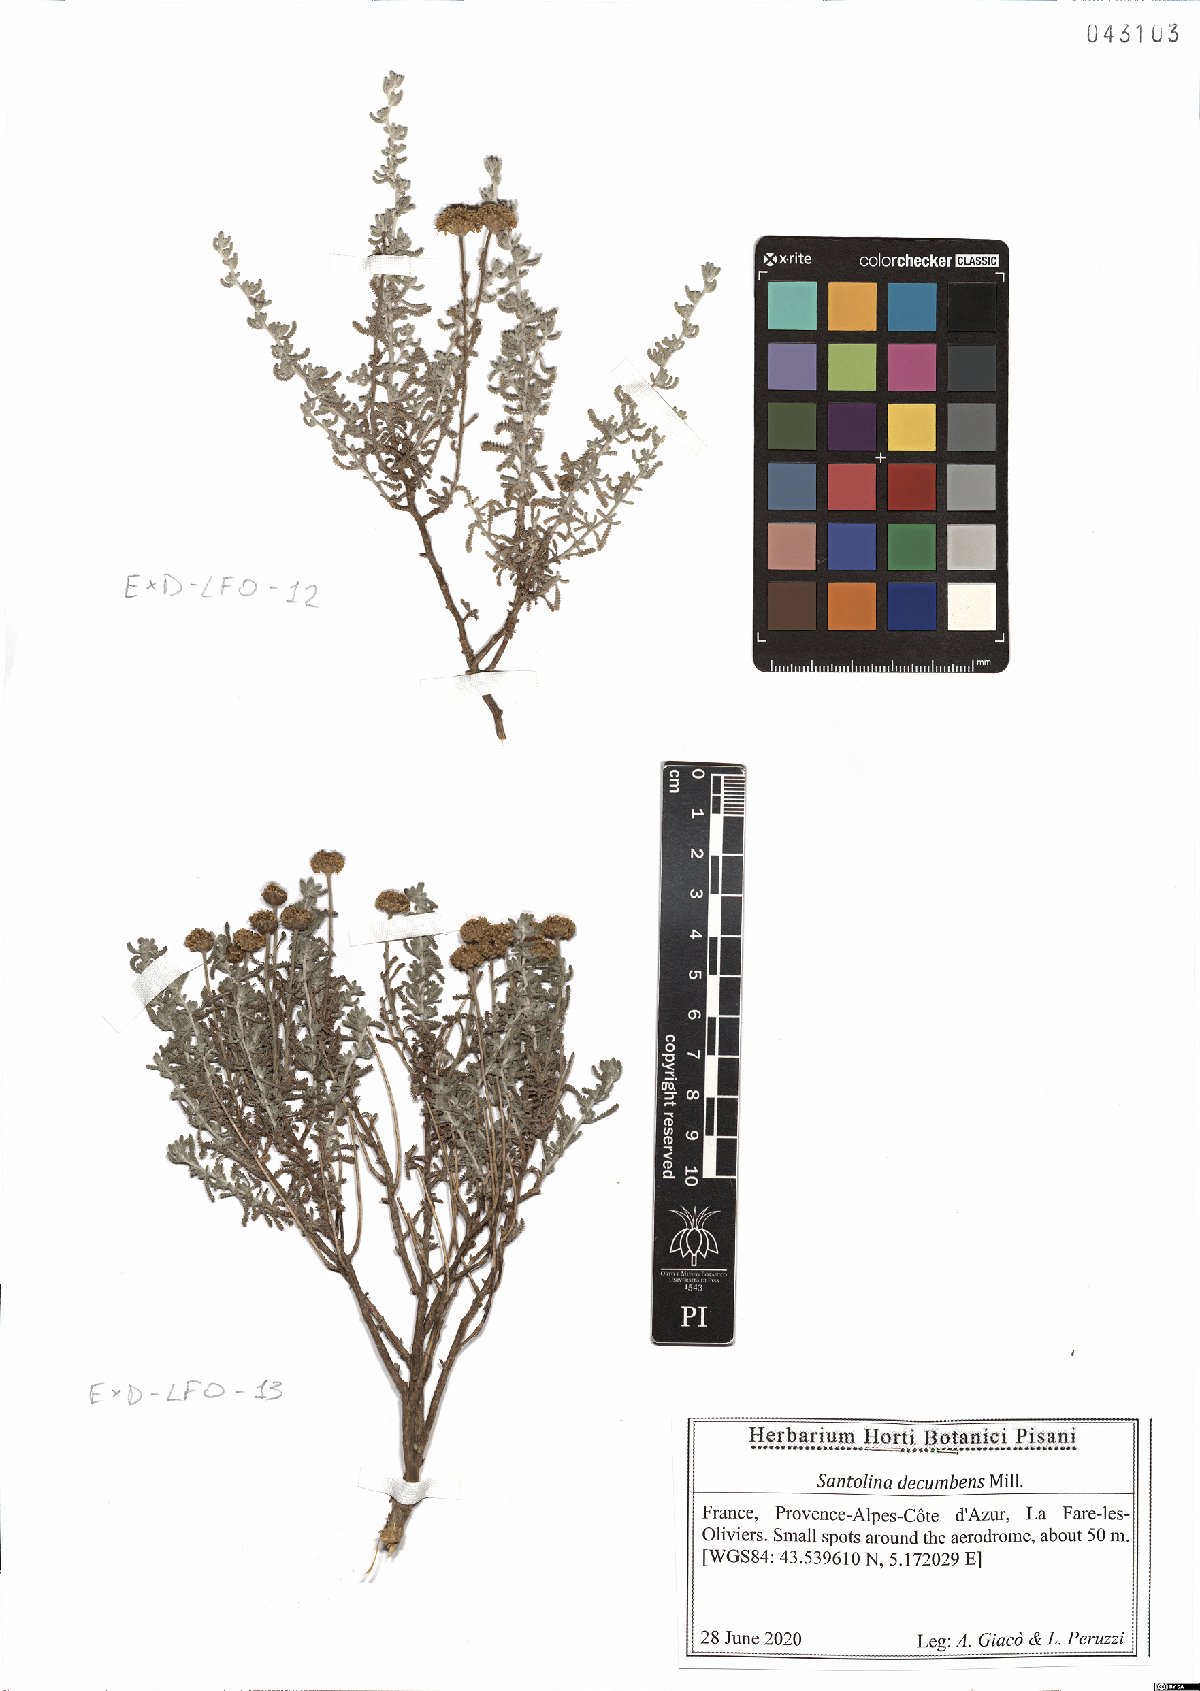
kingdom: Plantae
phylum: Tracheophyta
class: Magnoliopsida
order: Asterales
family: Asteraceae
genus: Santolina
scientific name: Santolina decumbens
